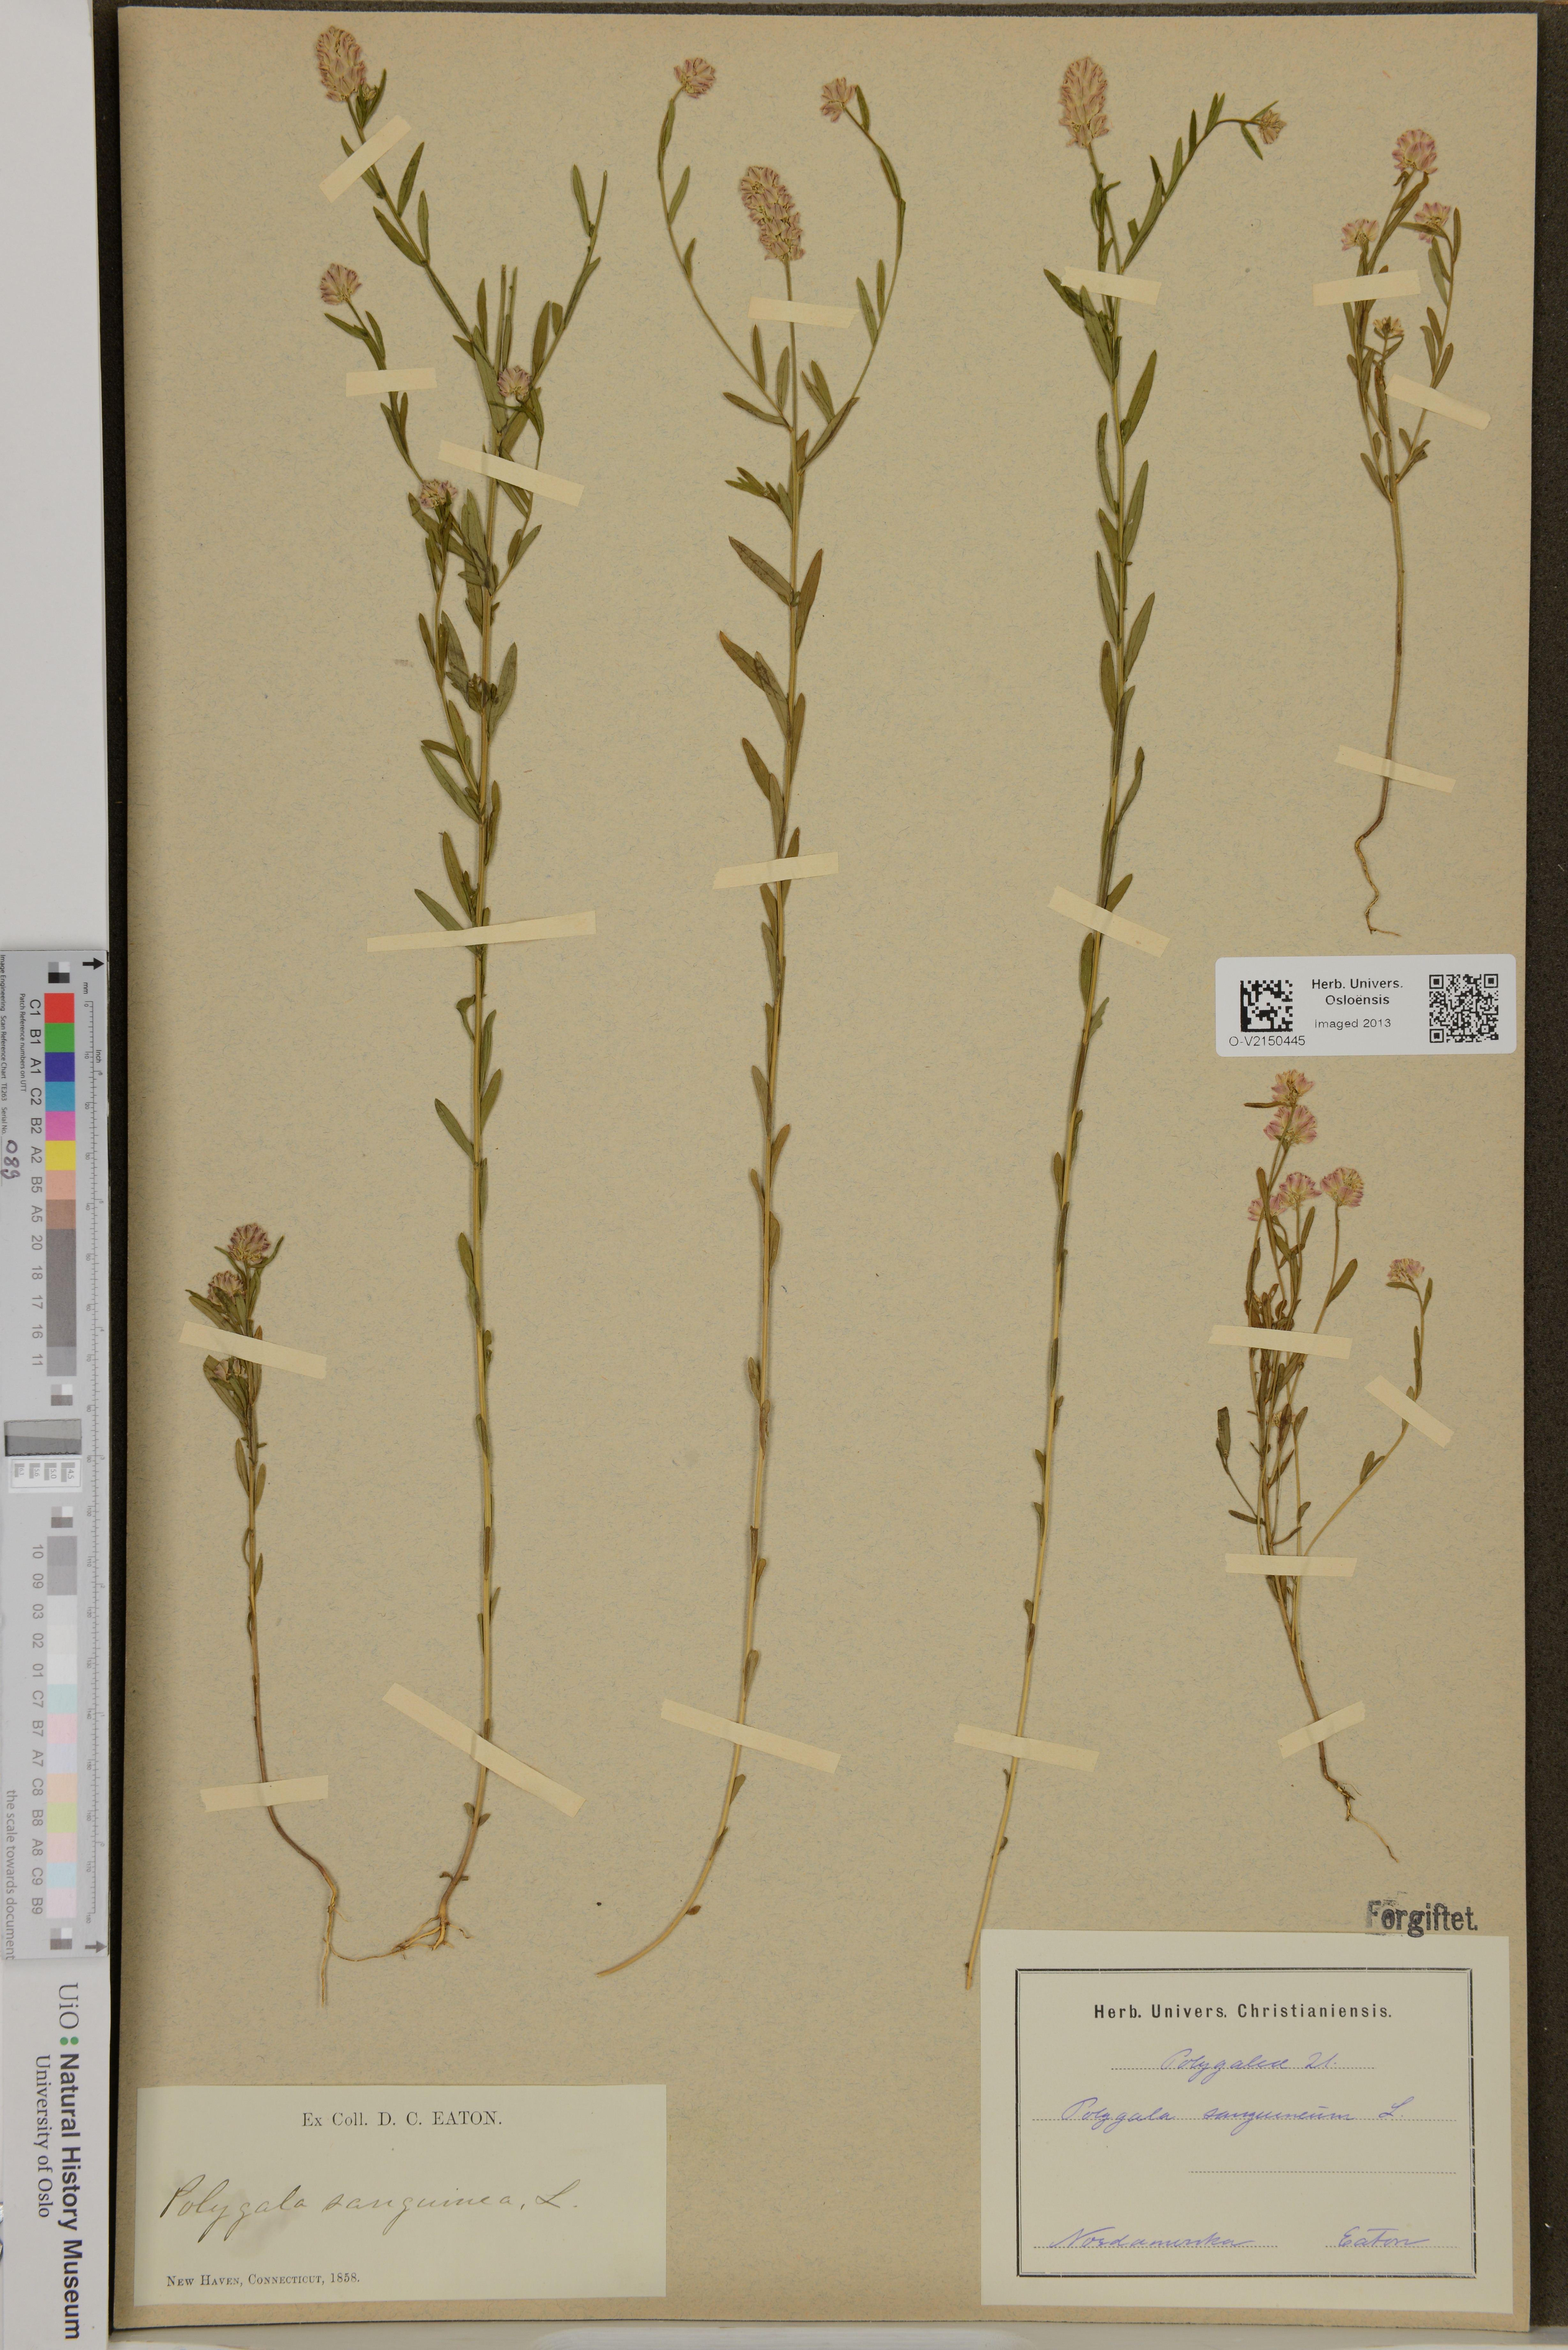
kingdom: Plantae
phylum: Tracheophyta
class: Magnoliopsida
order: Fabales
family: Polygalaceae
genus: Polygala
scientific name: Polygala sanguinea
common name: Blood milkwort
